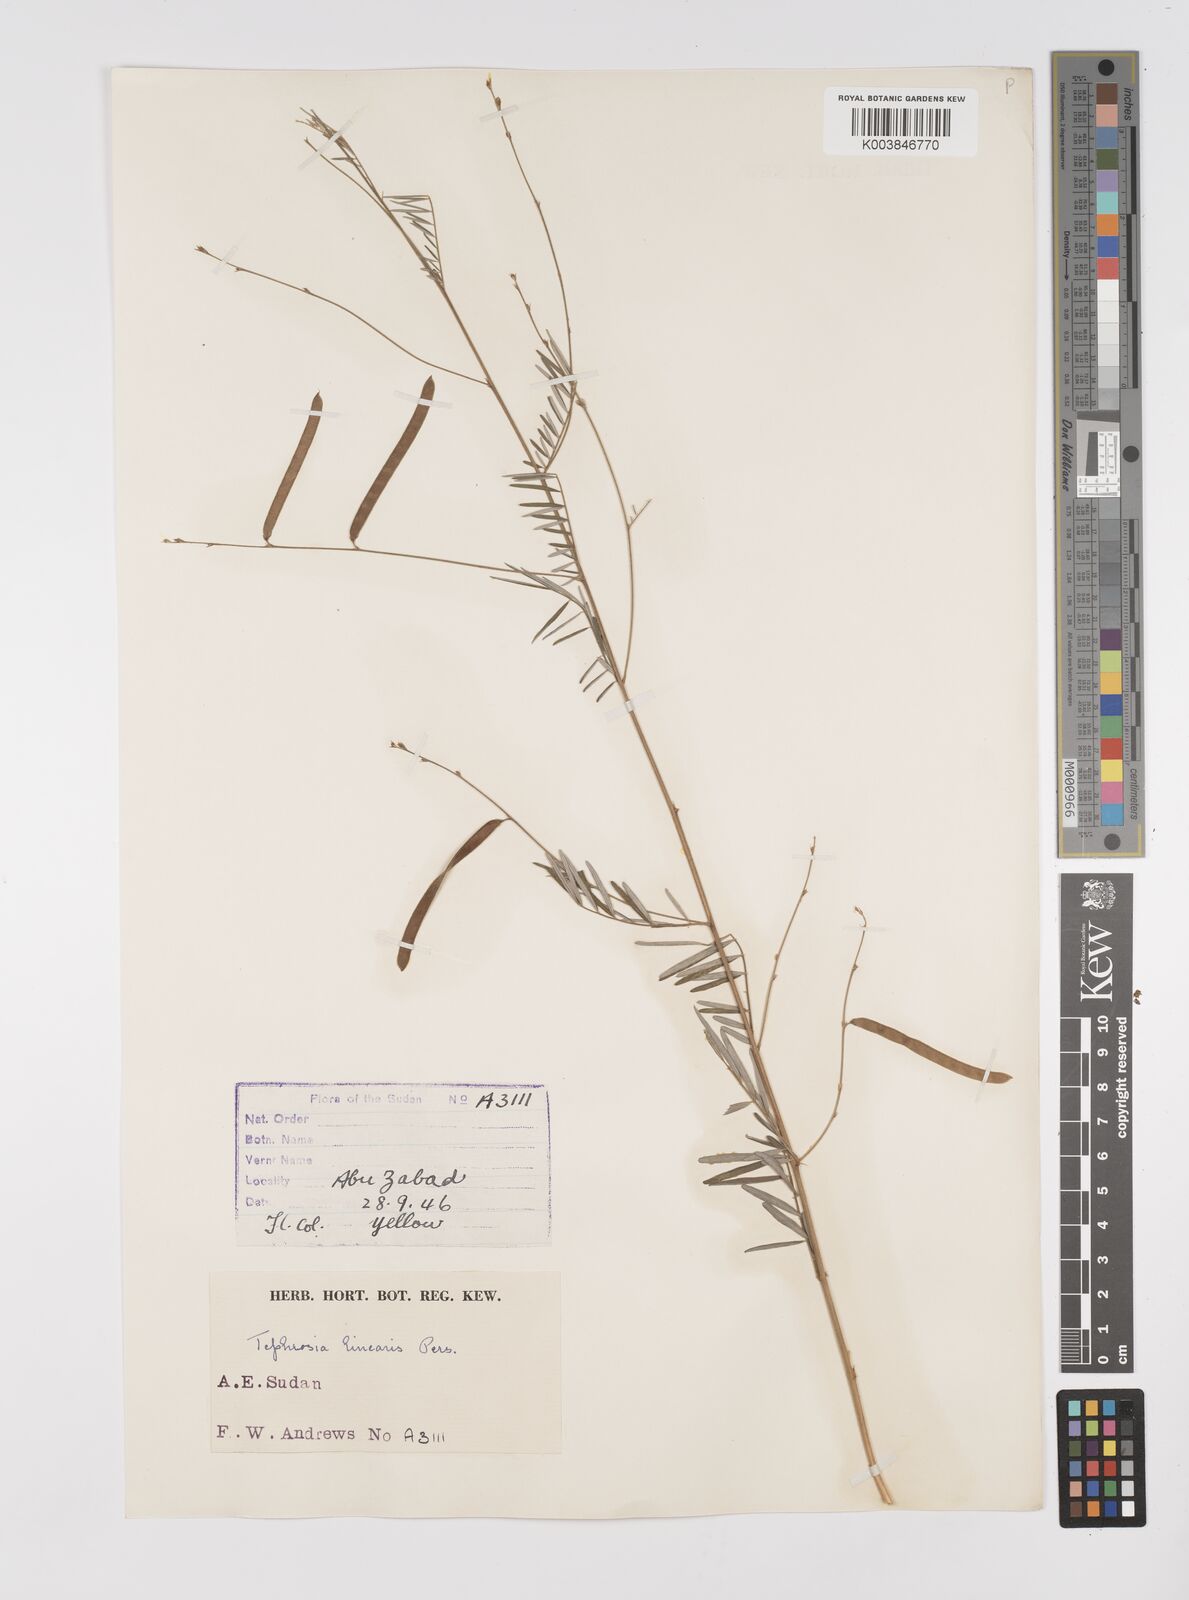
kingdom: Plantae
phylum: Tracheophyta
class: Magnoliopsida
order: Fabales
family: Fabaceae
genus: Tephrosia
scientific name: Tephrosia linearis
